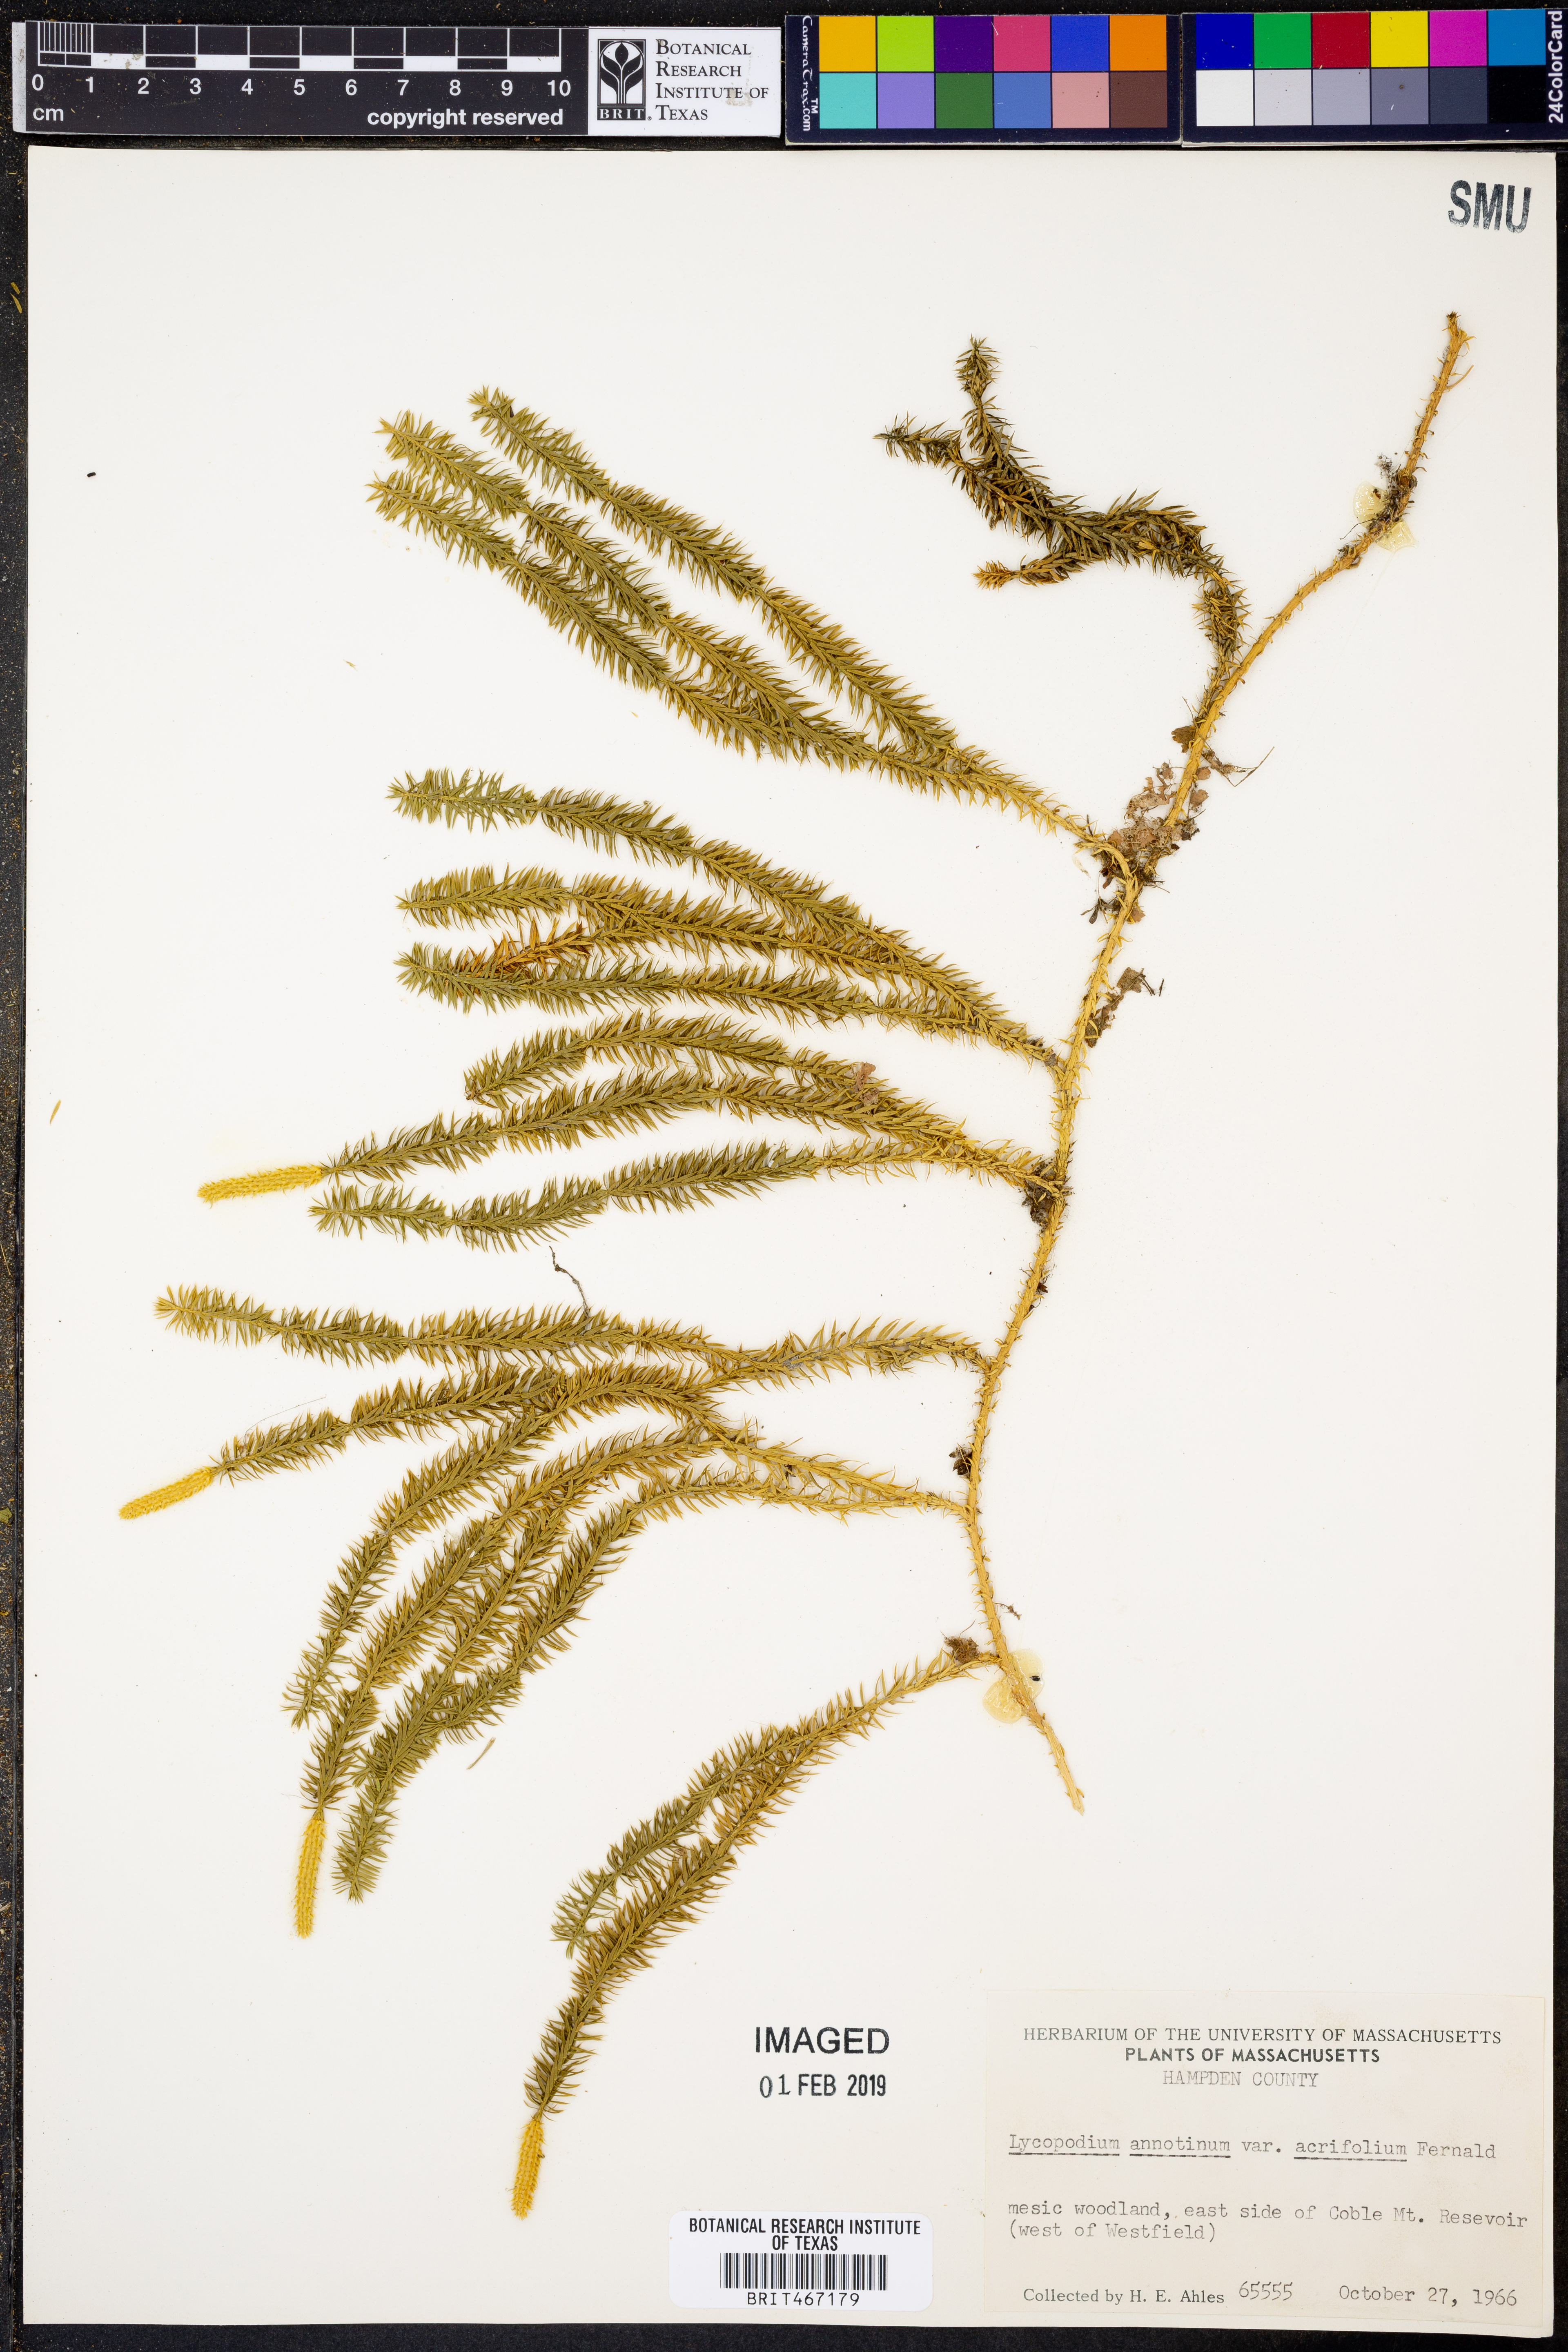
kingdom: Plantae
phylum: Tracheophyta
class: Lycopodiopsida
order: Lycopodiales
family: Lycopodiaceae
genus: Spinulum
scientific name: Spinulum annotinum
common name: Interrupted club-moss
